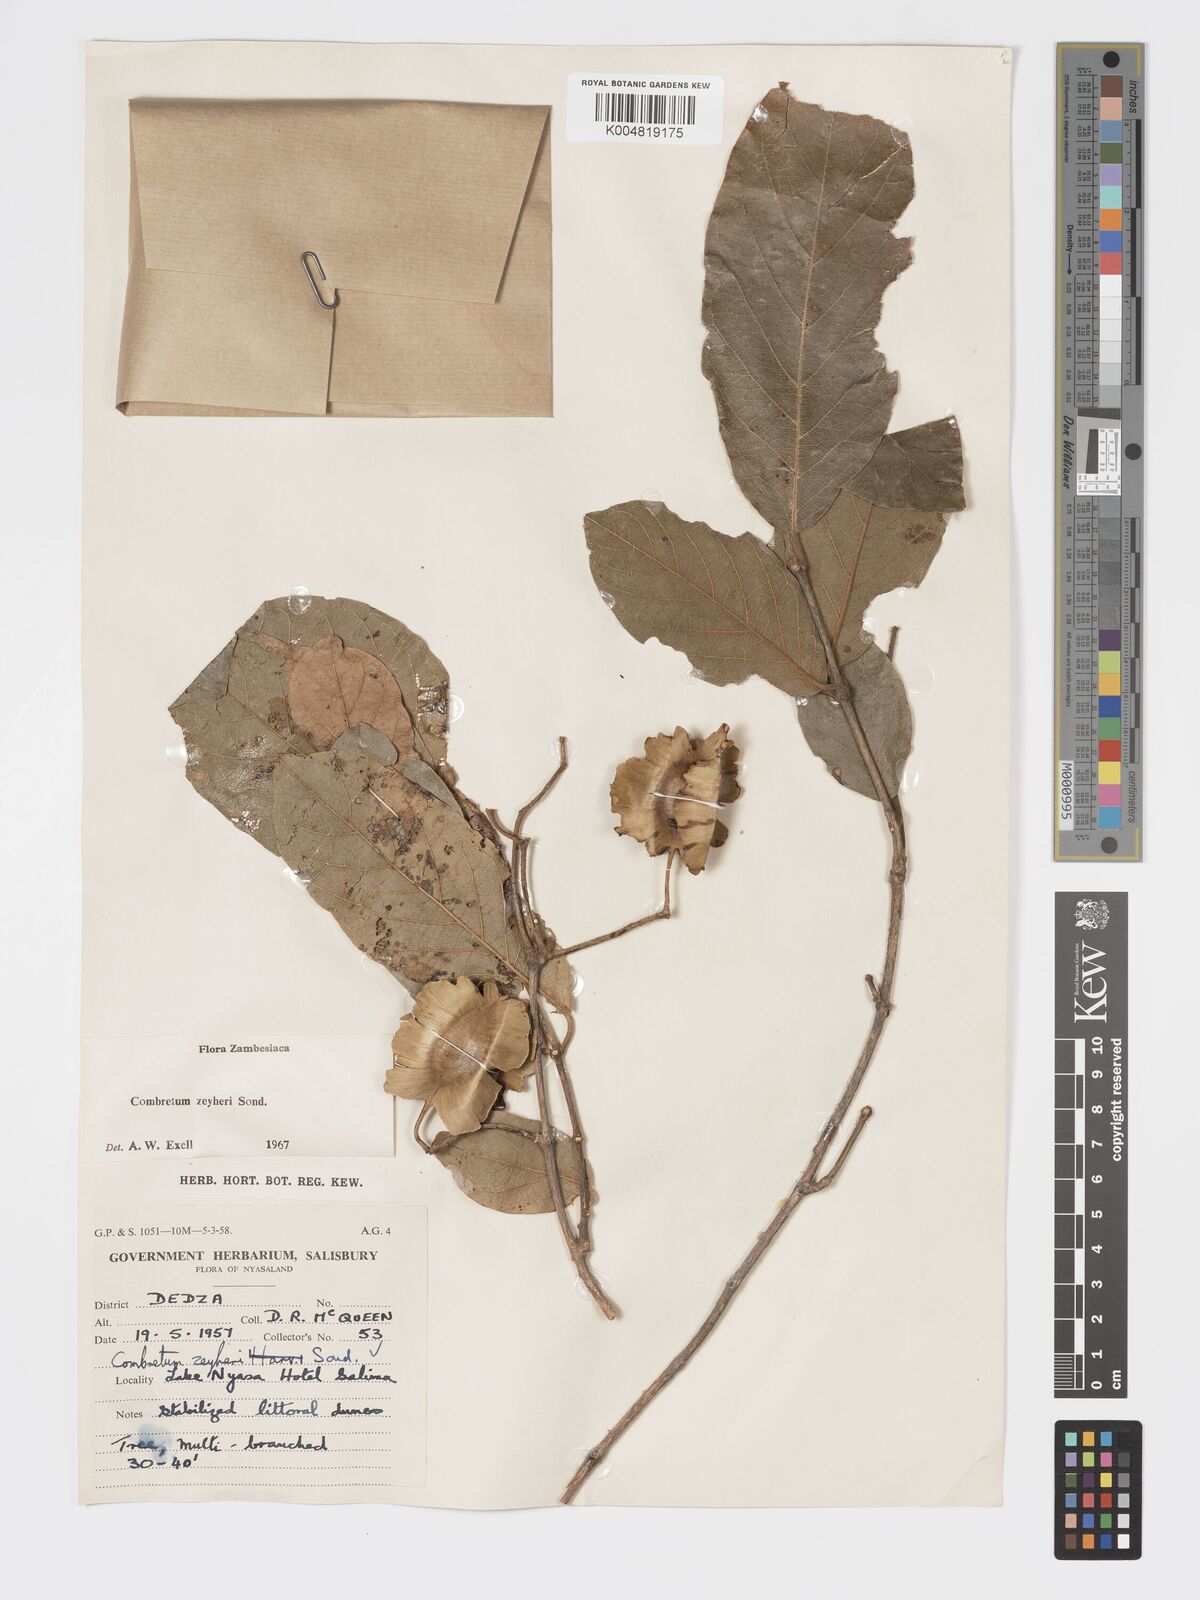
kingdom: Plantae
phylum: Tracheophyta
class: Magnoliopsida
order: Myrtales
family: Combretaceae
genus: Combretum
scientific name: Combretum zeyheri
